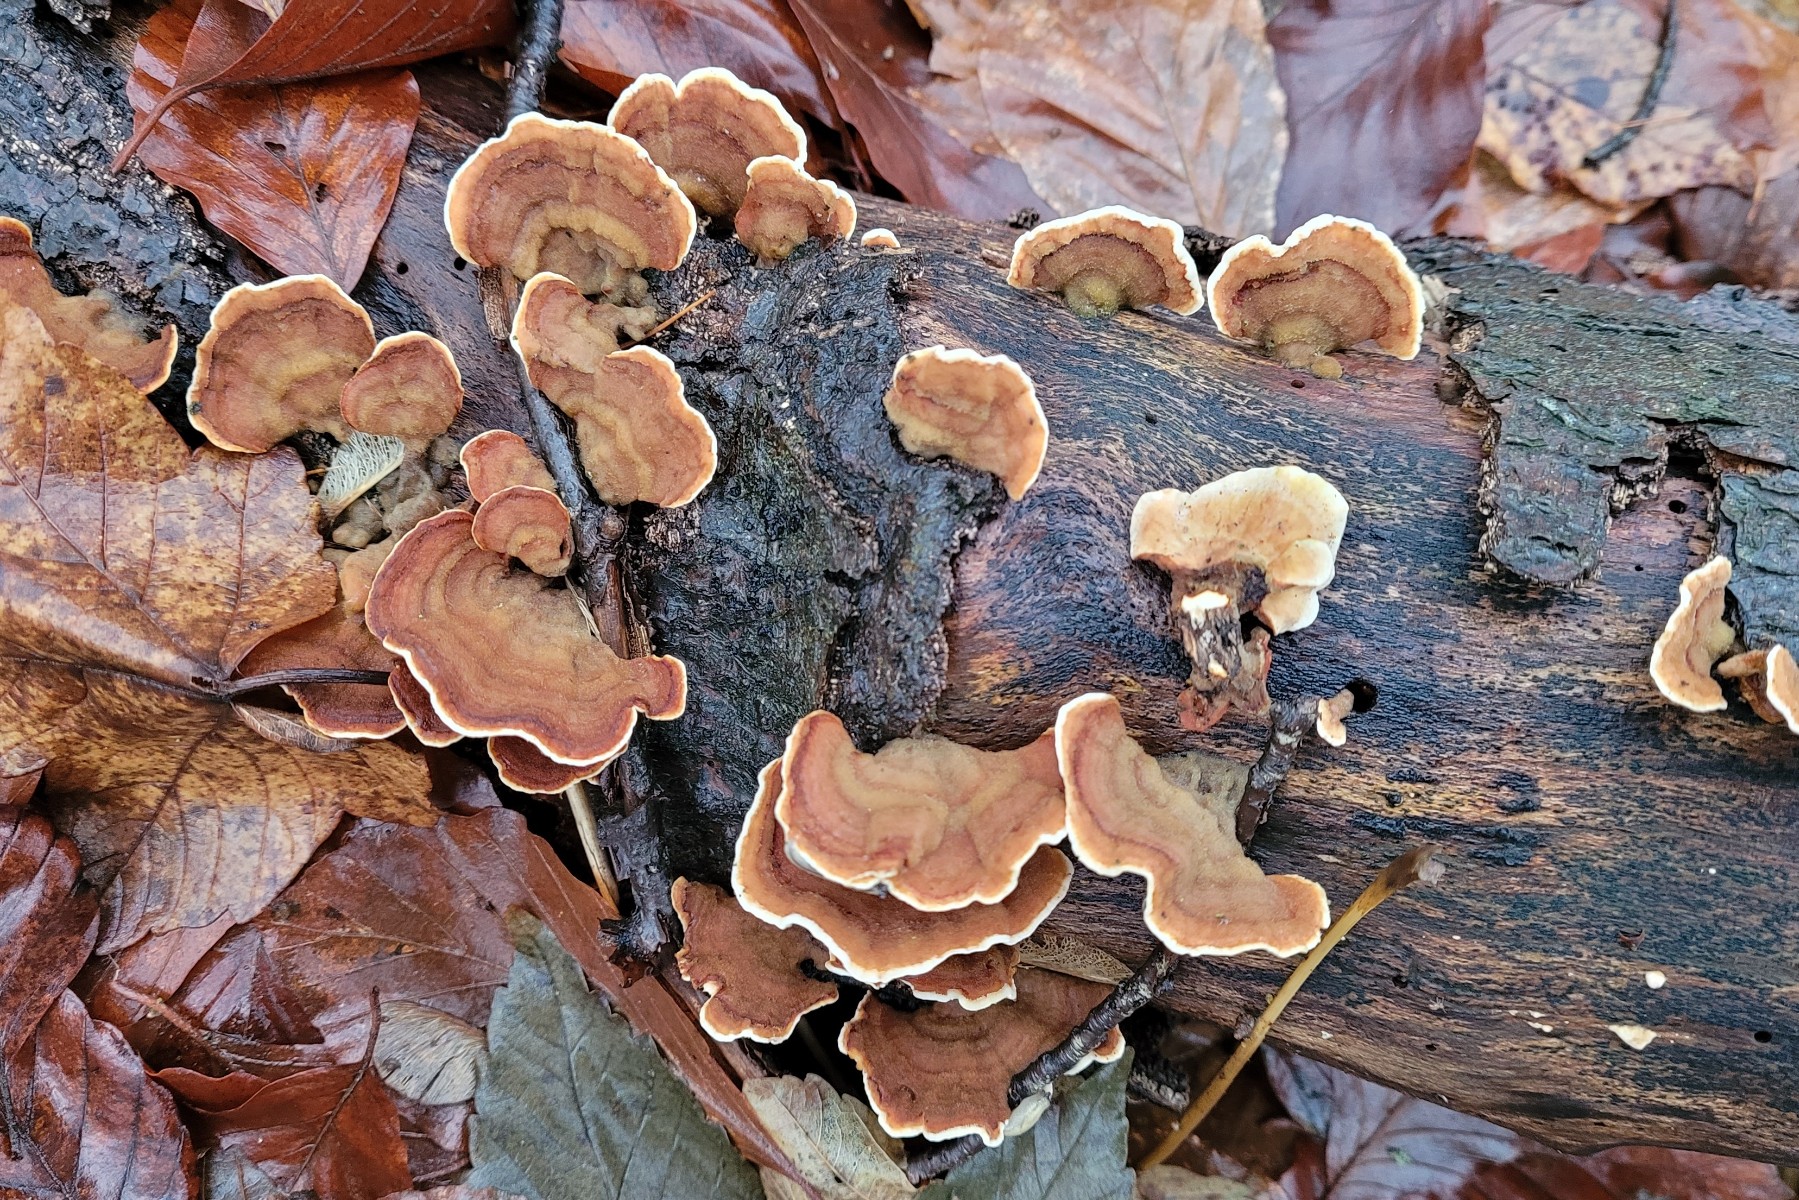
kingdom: Fungi
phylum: Basidiomycota
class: Agaricomycetes
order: Russulales
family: Stereaceae
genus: Stereum
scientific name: Stereum subtomentosum
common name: smuk lædersvamp
